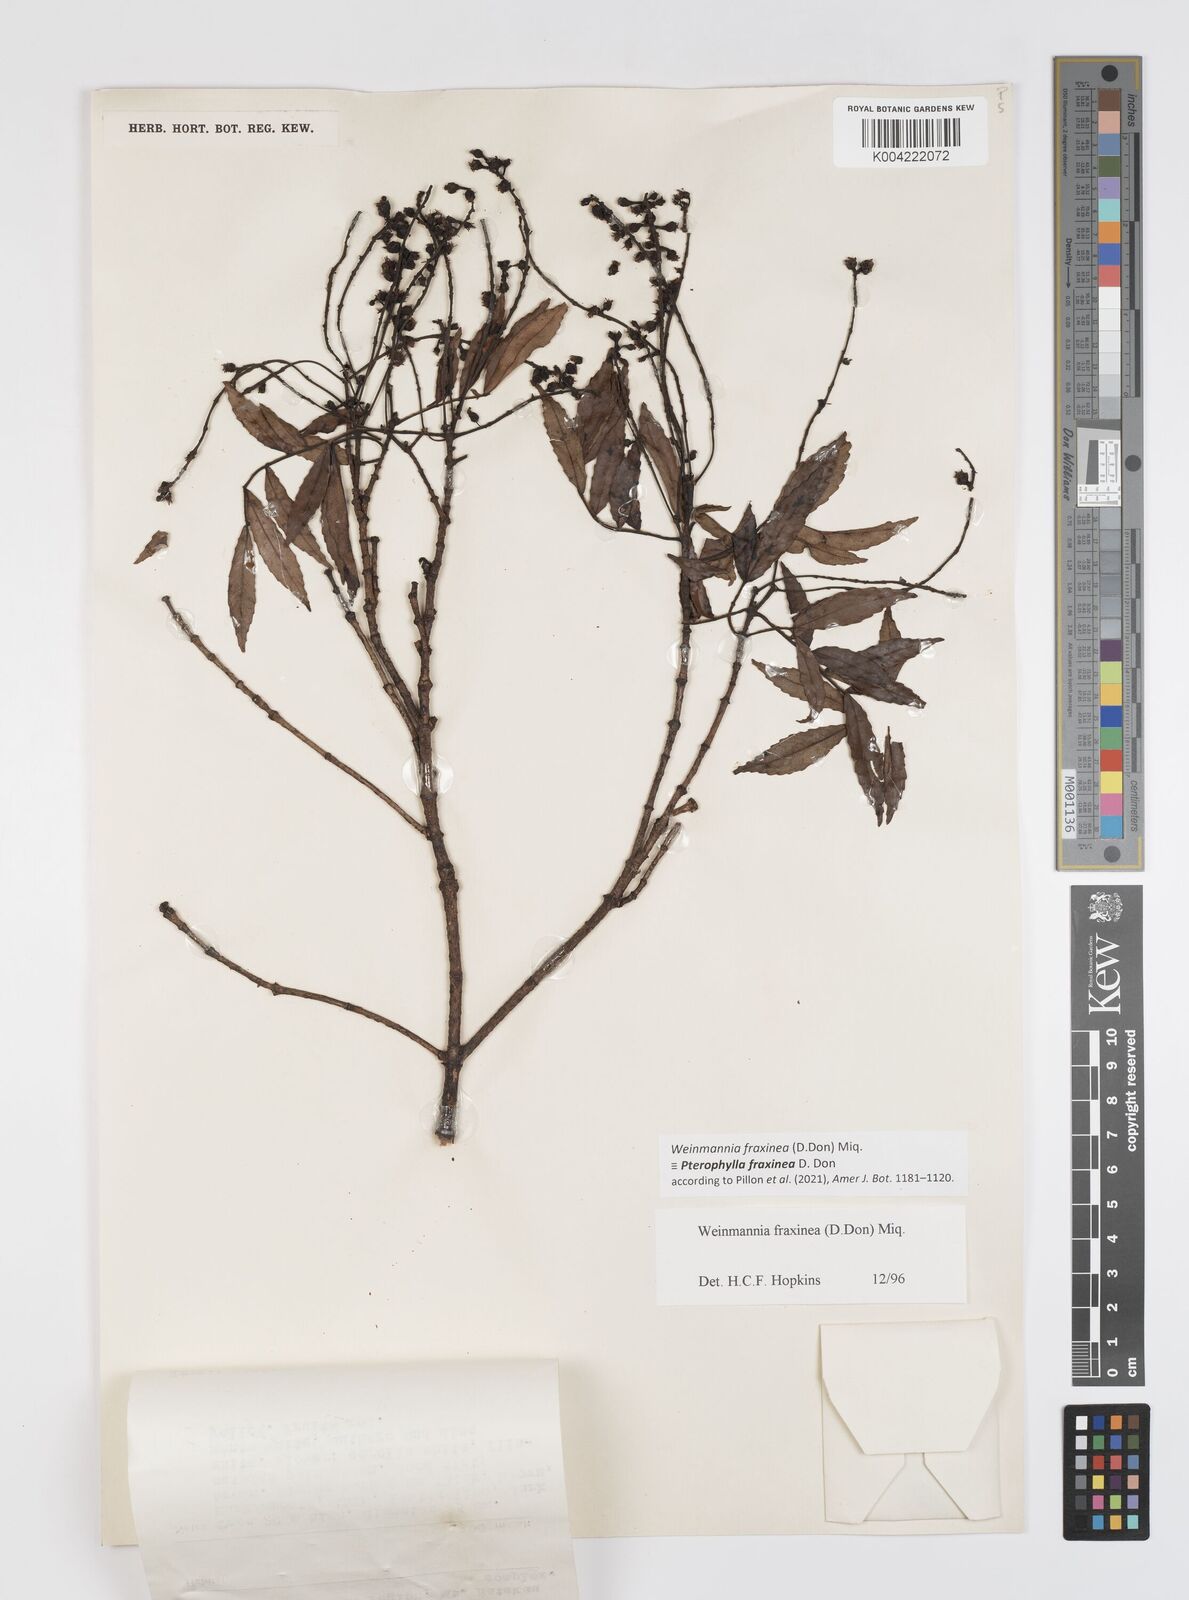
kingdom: Plantae
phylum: Tracheophyta
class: Magnoliopsida
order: Oxalidales
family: Cunoniaceae
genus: Pterophylla
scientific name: Pterophylla fraxinea
